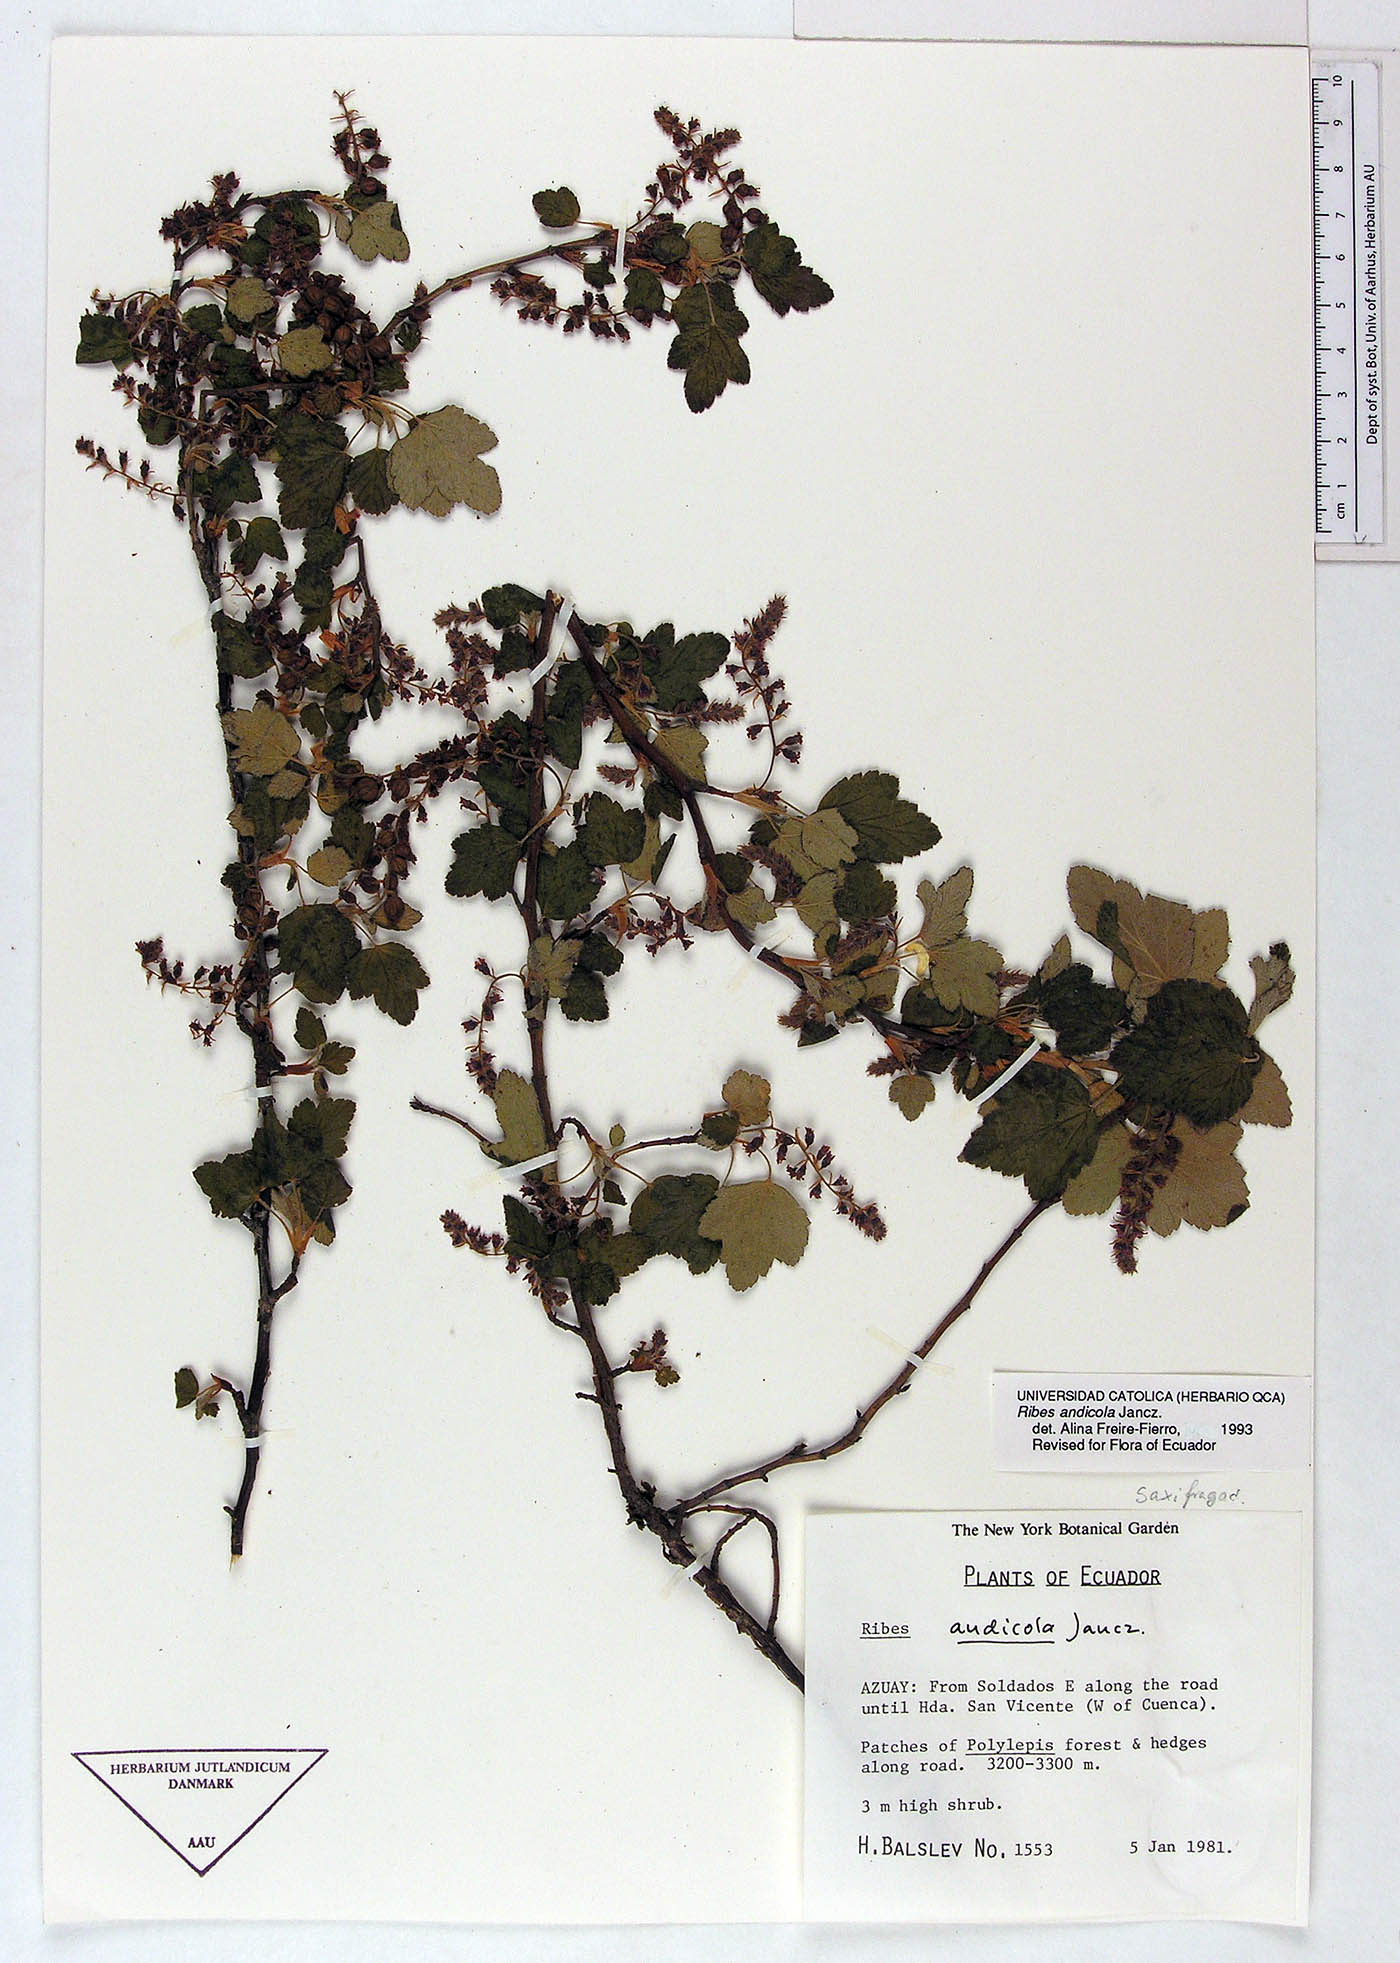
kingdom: Plantae
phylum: Tracheophyta
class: Magnoliopsida
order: Saxifragales
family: Grossulariaceae
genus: Ribes
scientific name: Ribes andicola
